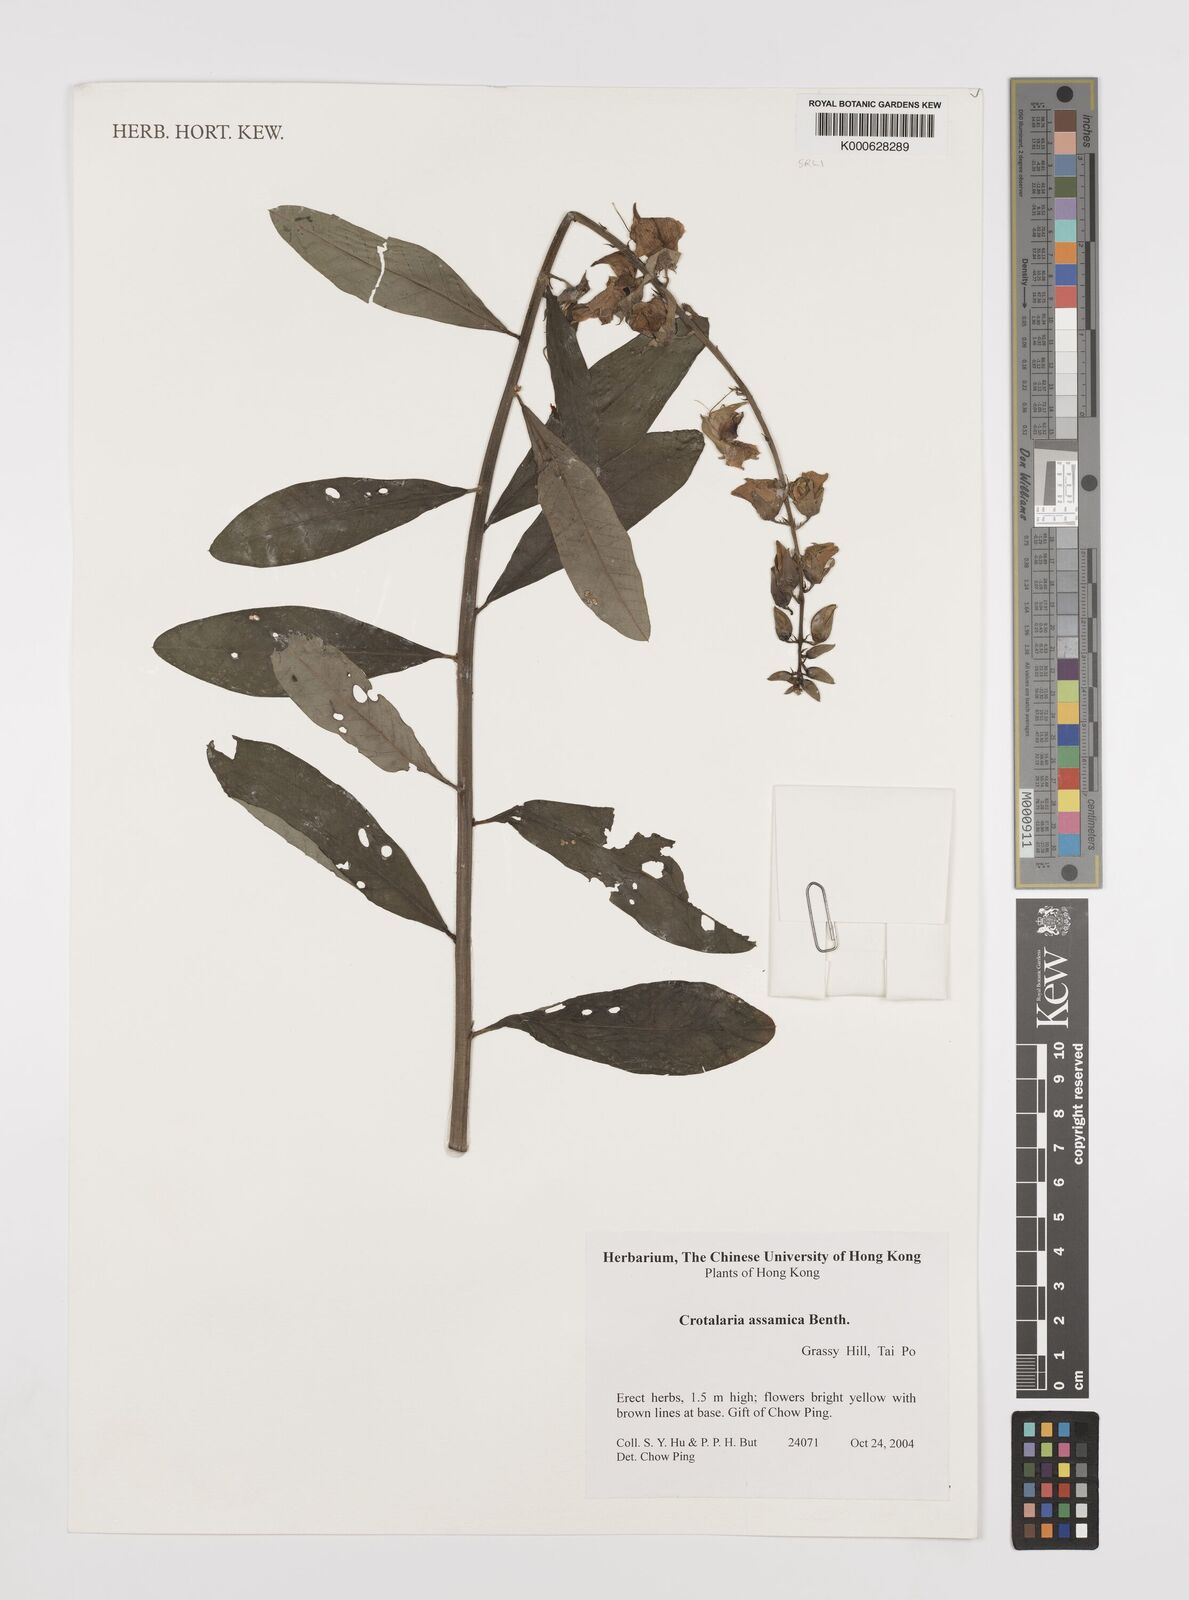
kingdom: Plantae
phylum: Tracheophyta
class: Magnoliopsida
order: Fabales
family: Fabaceae
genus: Crotalaria
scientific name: Crotalaria sericea
